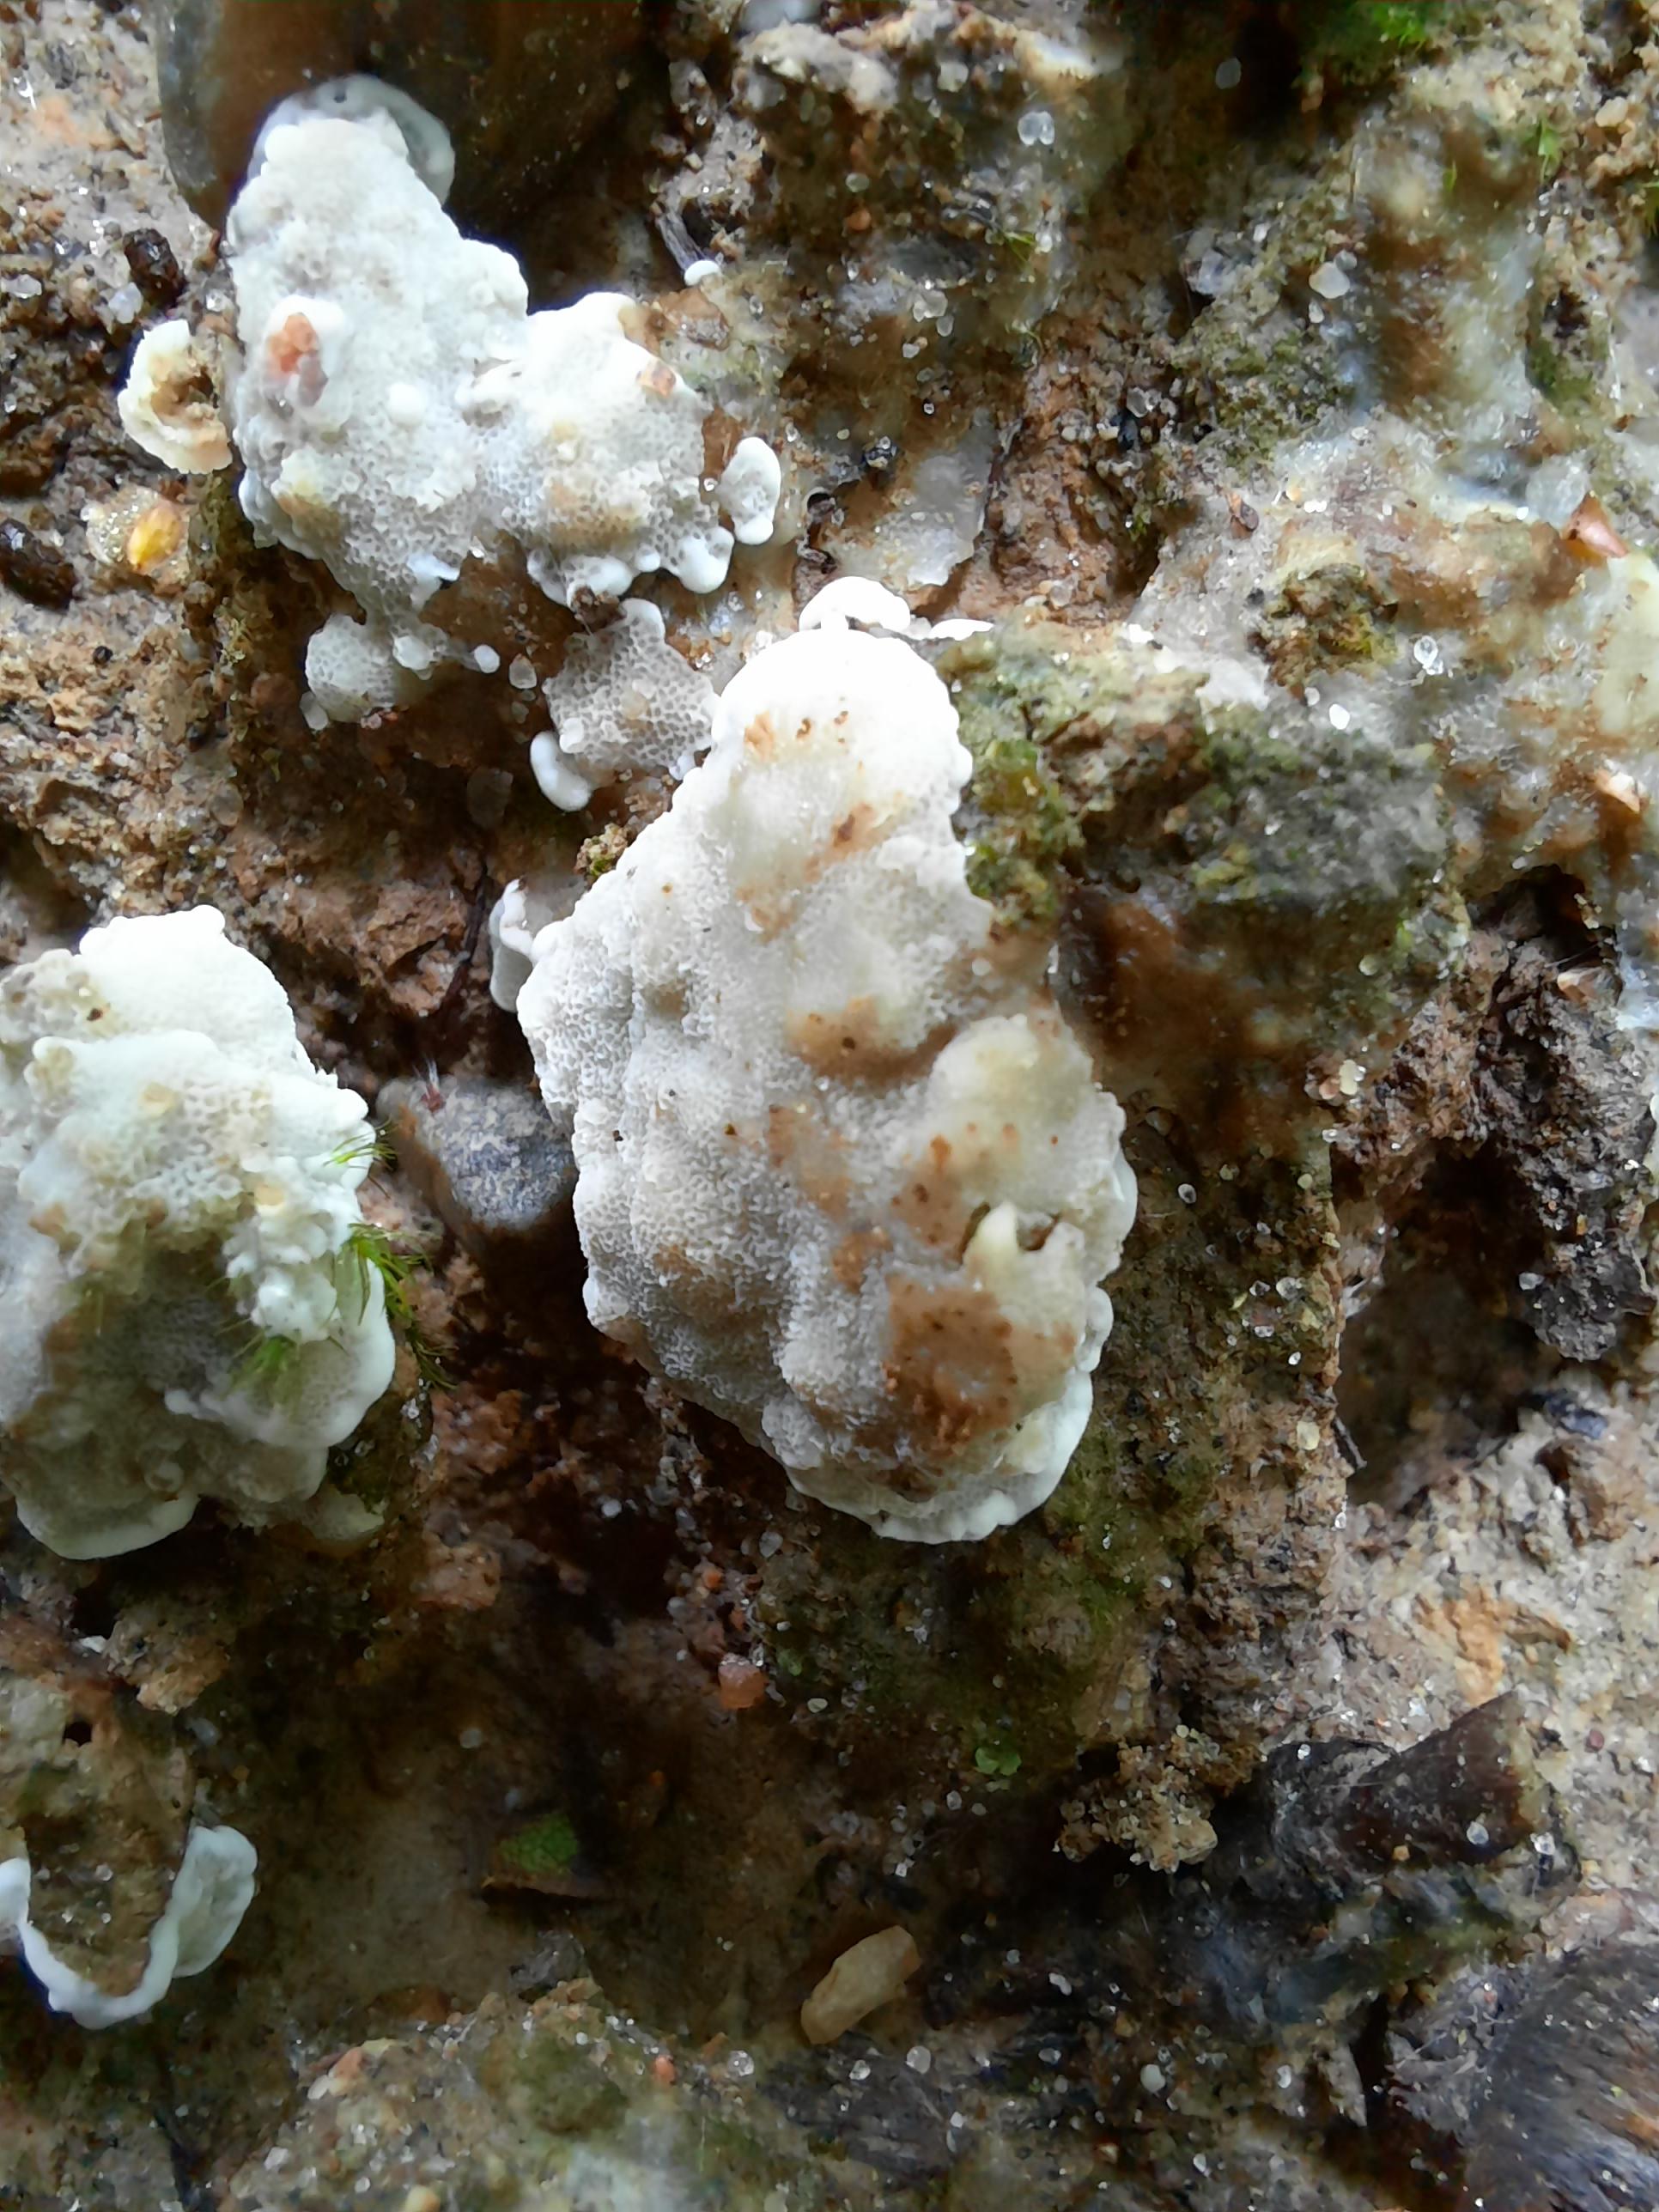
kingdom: Fungi
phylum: Basidiomycota
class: Agaricomycetes
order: Polyporales
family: Meruliaceae
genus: Physisporinus
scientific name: Physisporinus vitreus
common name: mastesvamp
